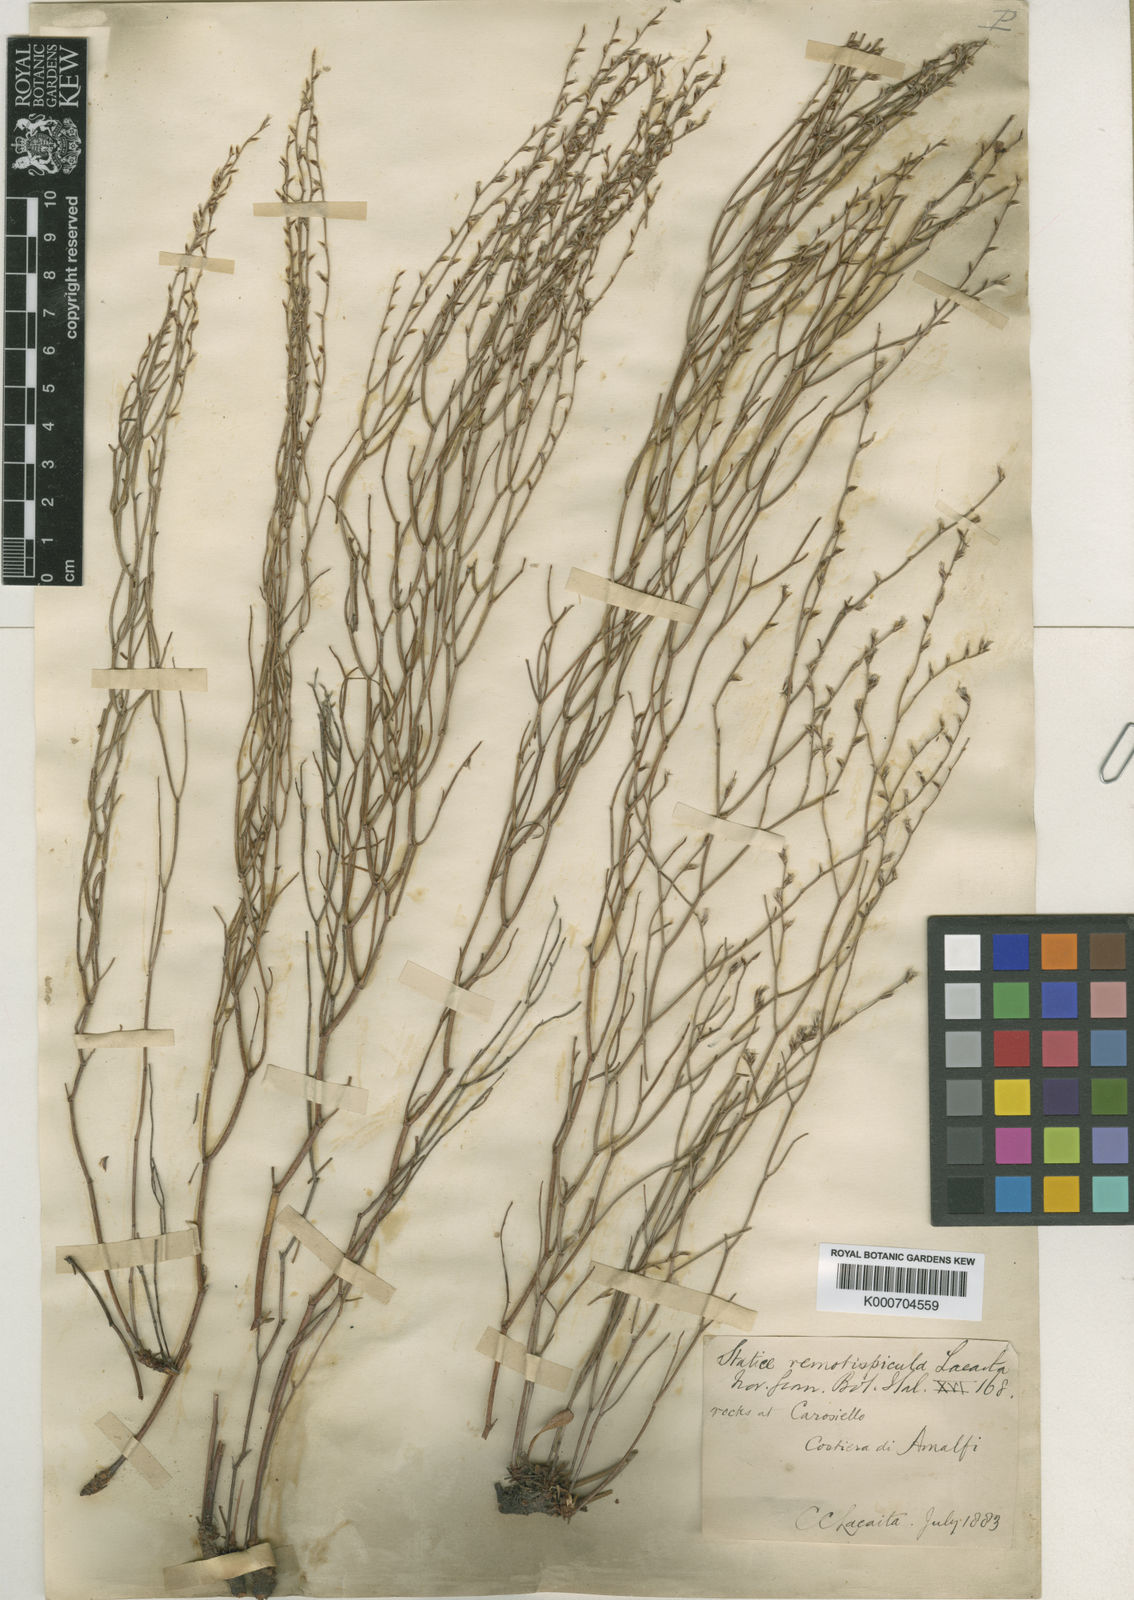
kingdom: Plantae
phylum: Tracheophyta
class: Magnoliopsida
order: Caryophyllales
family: Plumbaginaceae
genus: Limonium
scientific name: Limonium remotispiculum
